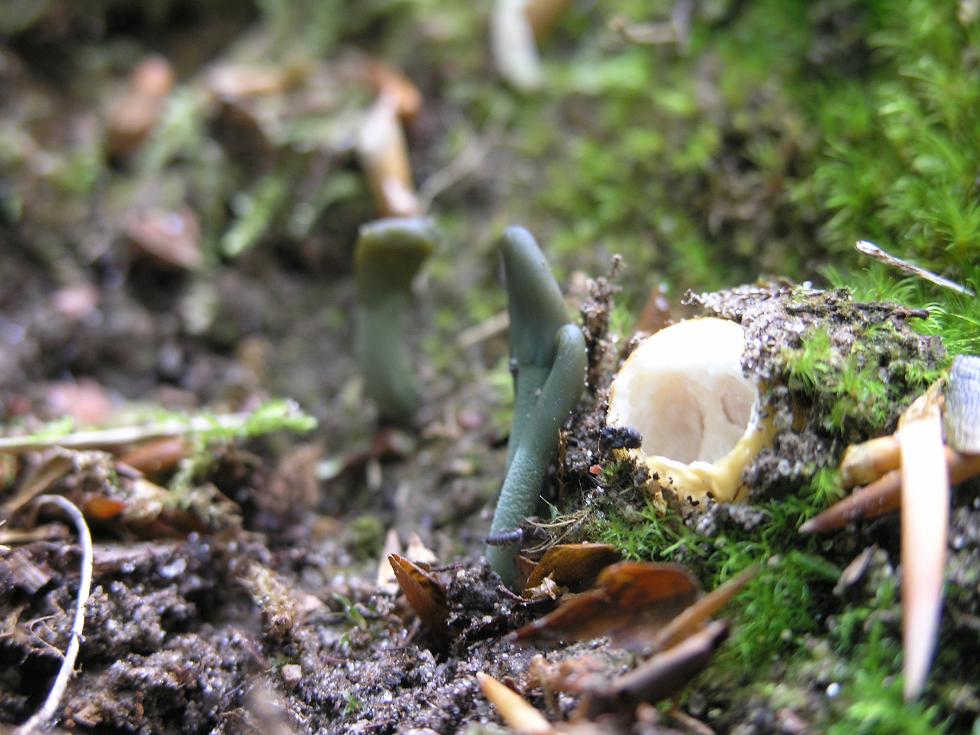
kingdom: Fungi
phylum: Ascomycota
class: Leotiomycetes
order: Leotiales
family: Leotiaceae
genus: Microglossum
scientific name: Microglossum griseoviride
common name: grågrøn farvetunge
